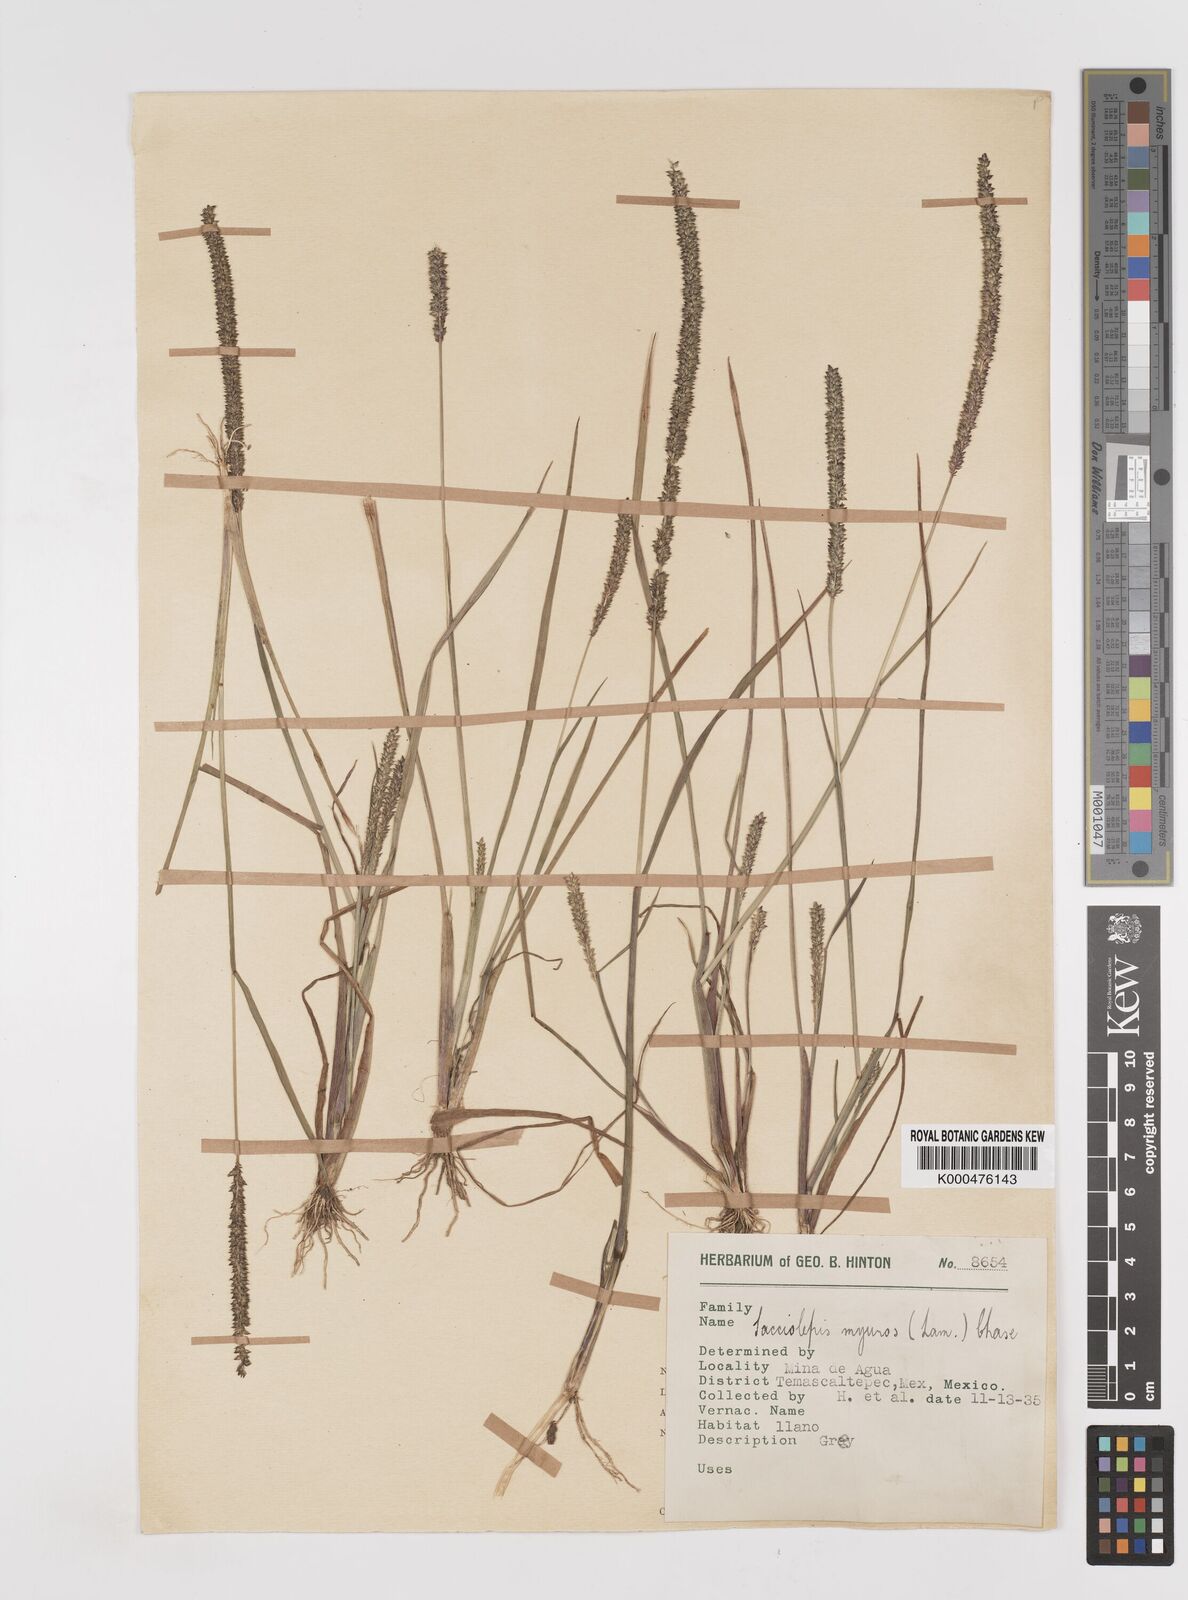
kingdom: Plantae
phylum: Tracheophyta
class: Liliopsida
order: Poales
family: Poaceae
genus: Sacciolepis
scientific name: Sacciolepis myuros
